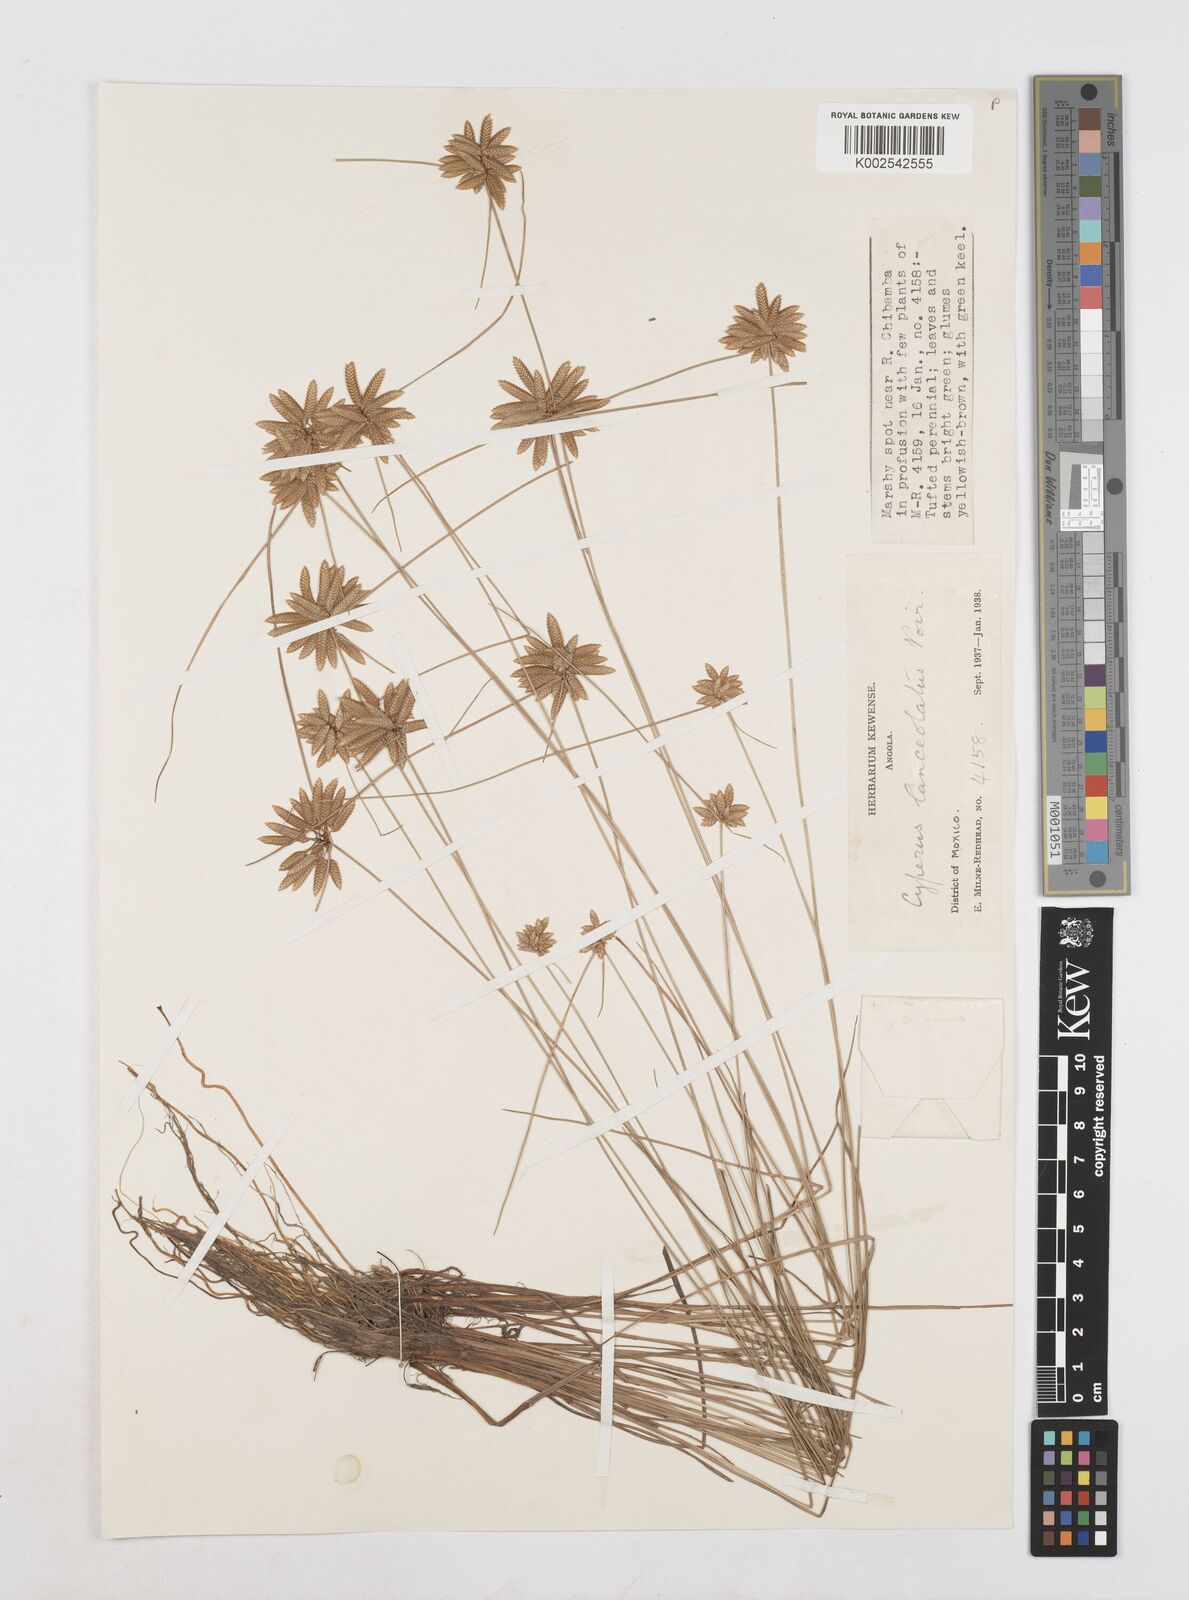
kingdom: Plantae
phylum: Tracheophyta
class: Liliopsida
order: Poales
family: Cyperaceae
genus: Cyperus
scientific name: Cyperus
